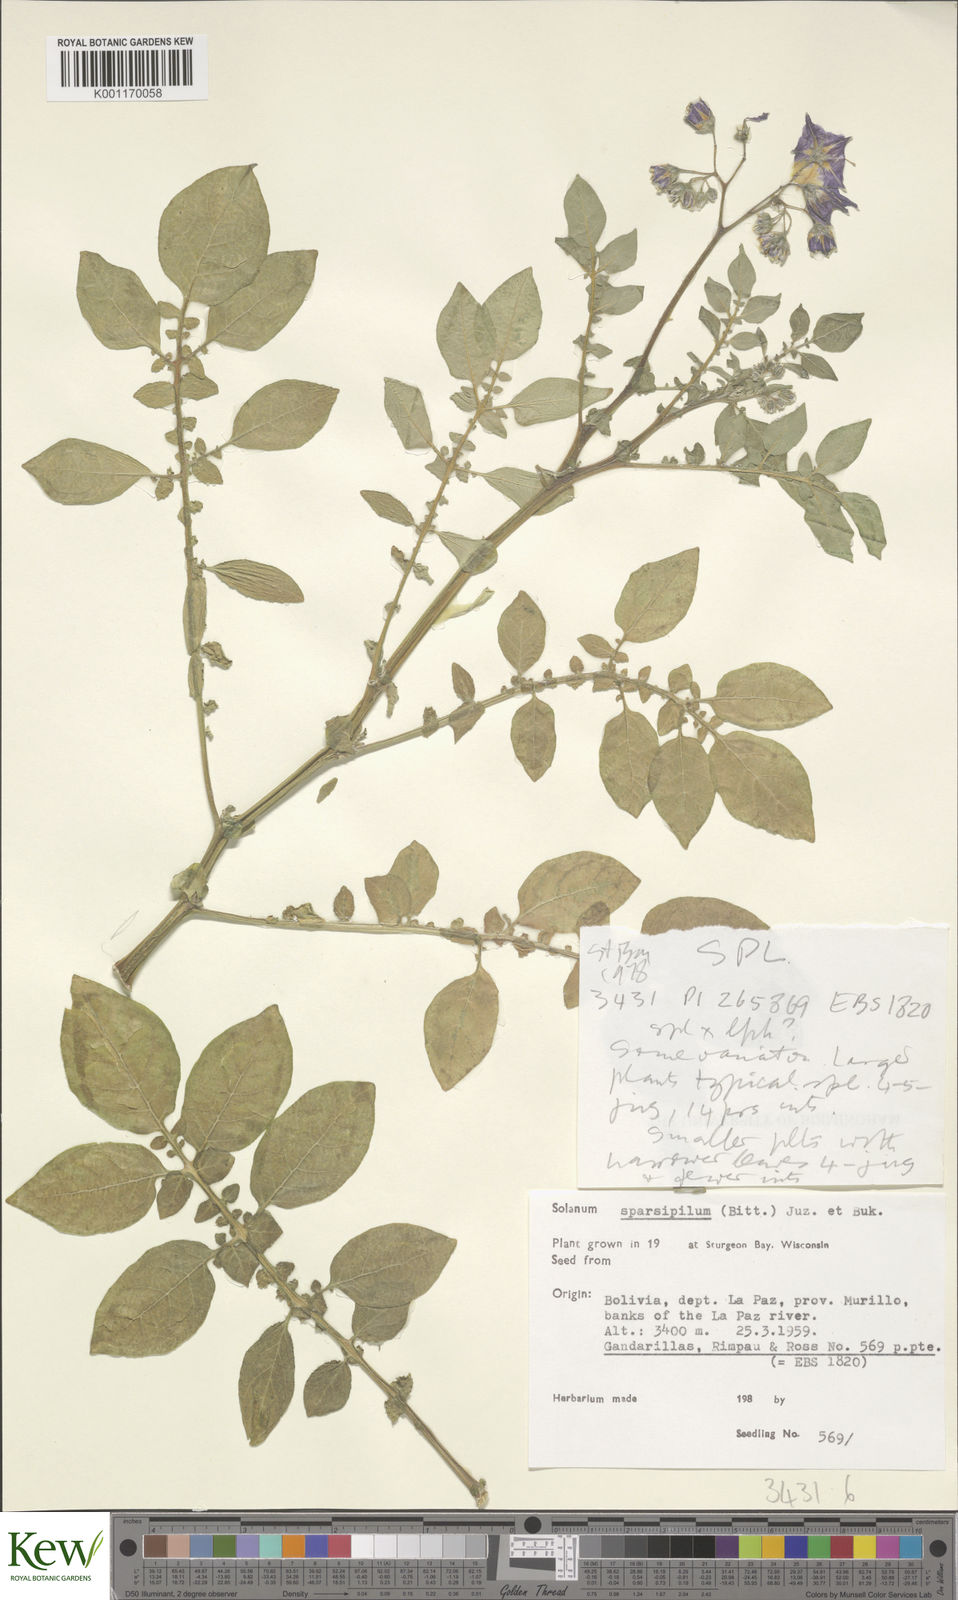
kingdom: Plantae
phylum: Tracheophyta
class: Magnoliopsida
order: Solanales
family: Solanaceae
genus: Solanum
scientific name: Solanum brevicaule
